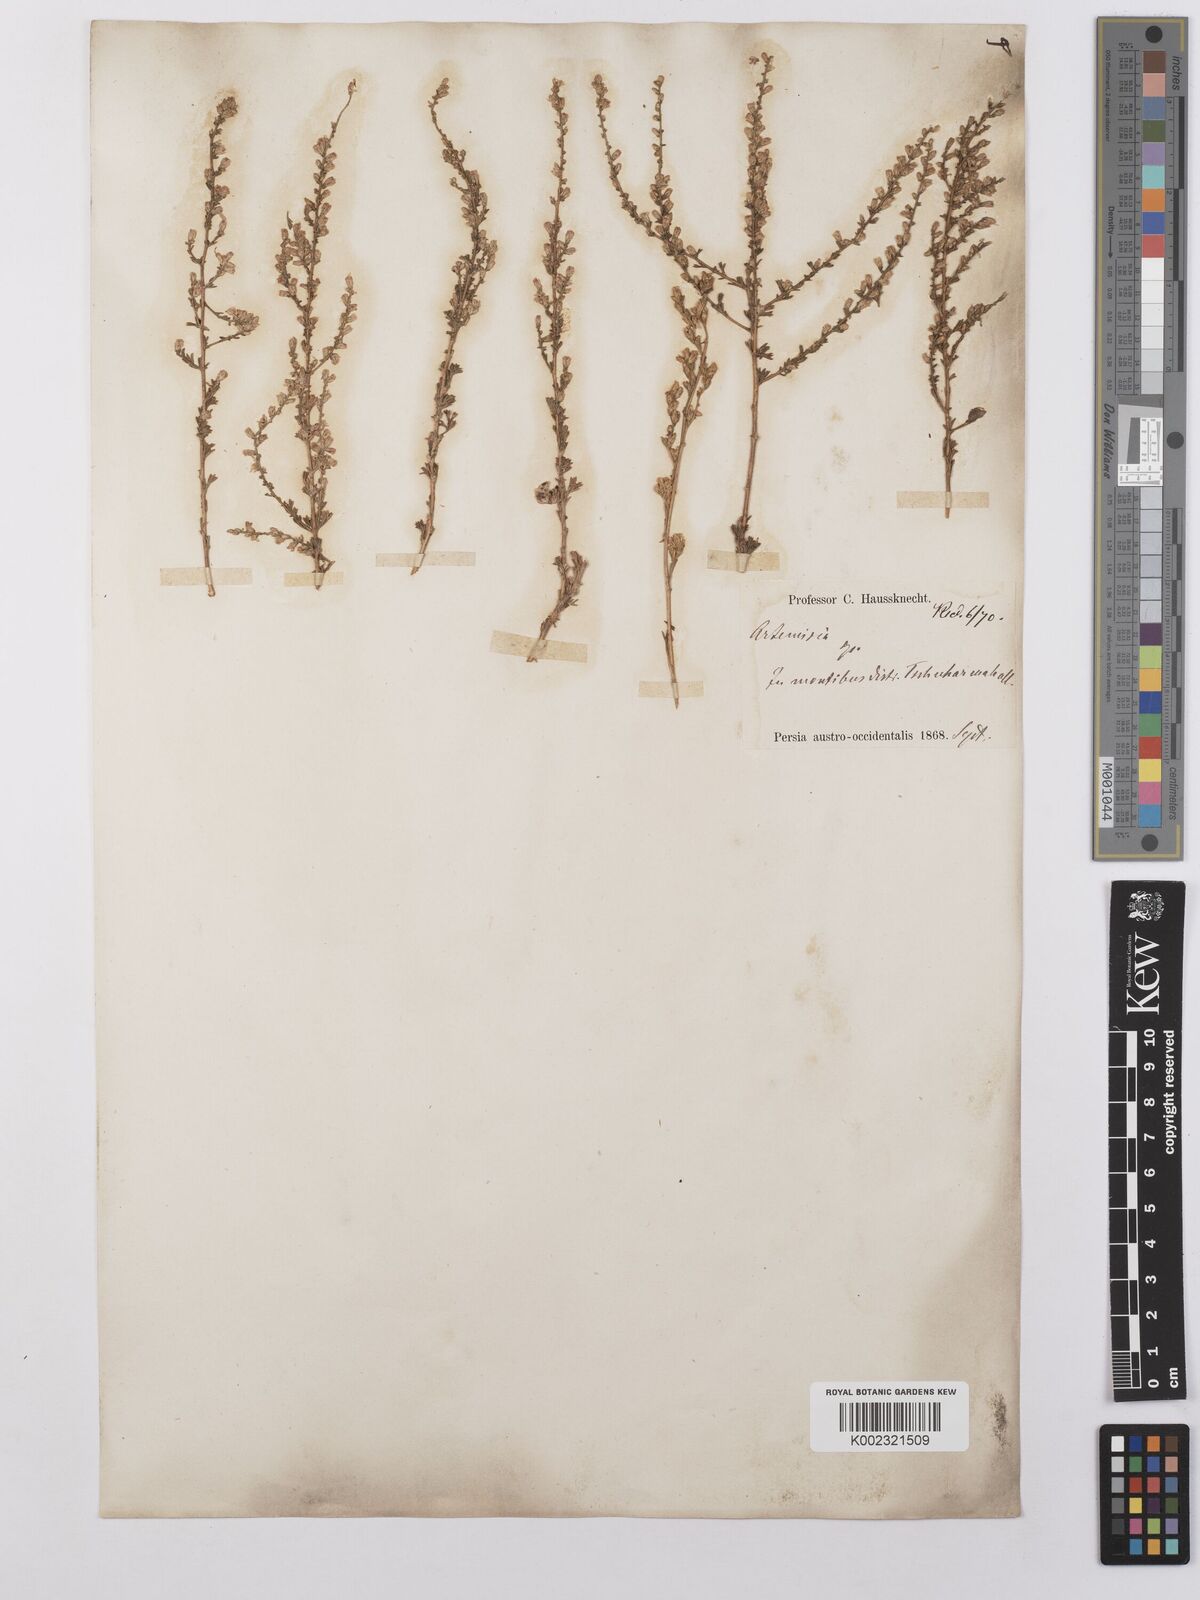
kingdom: Plantae
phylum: Tracheophyta
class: Magnoliopsida
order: Asterales
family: Asteraceae
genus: Artemisia
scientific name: Artemisia aucheri
